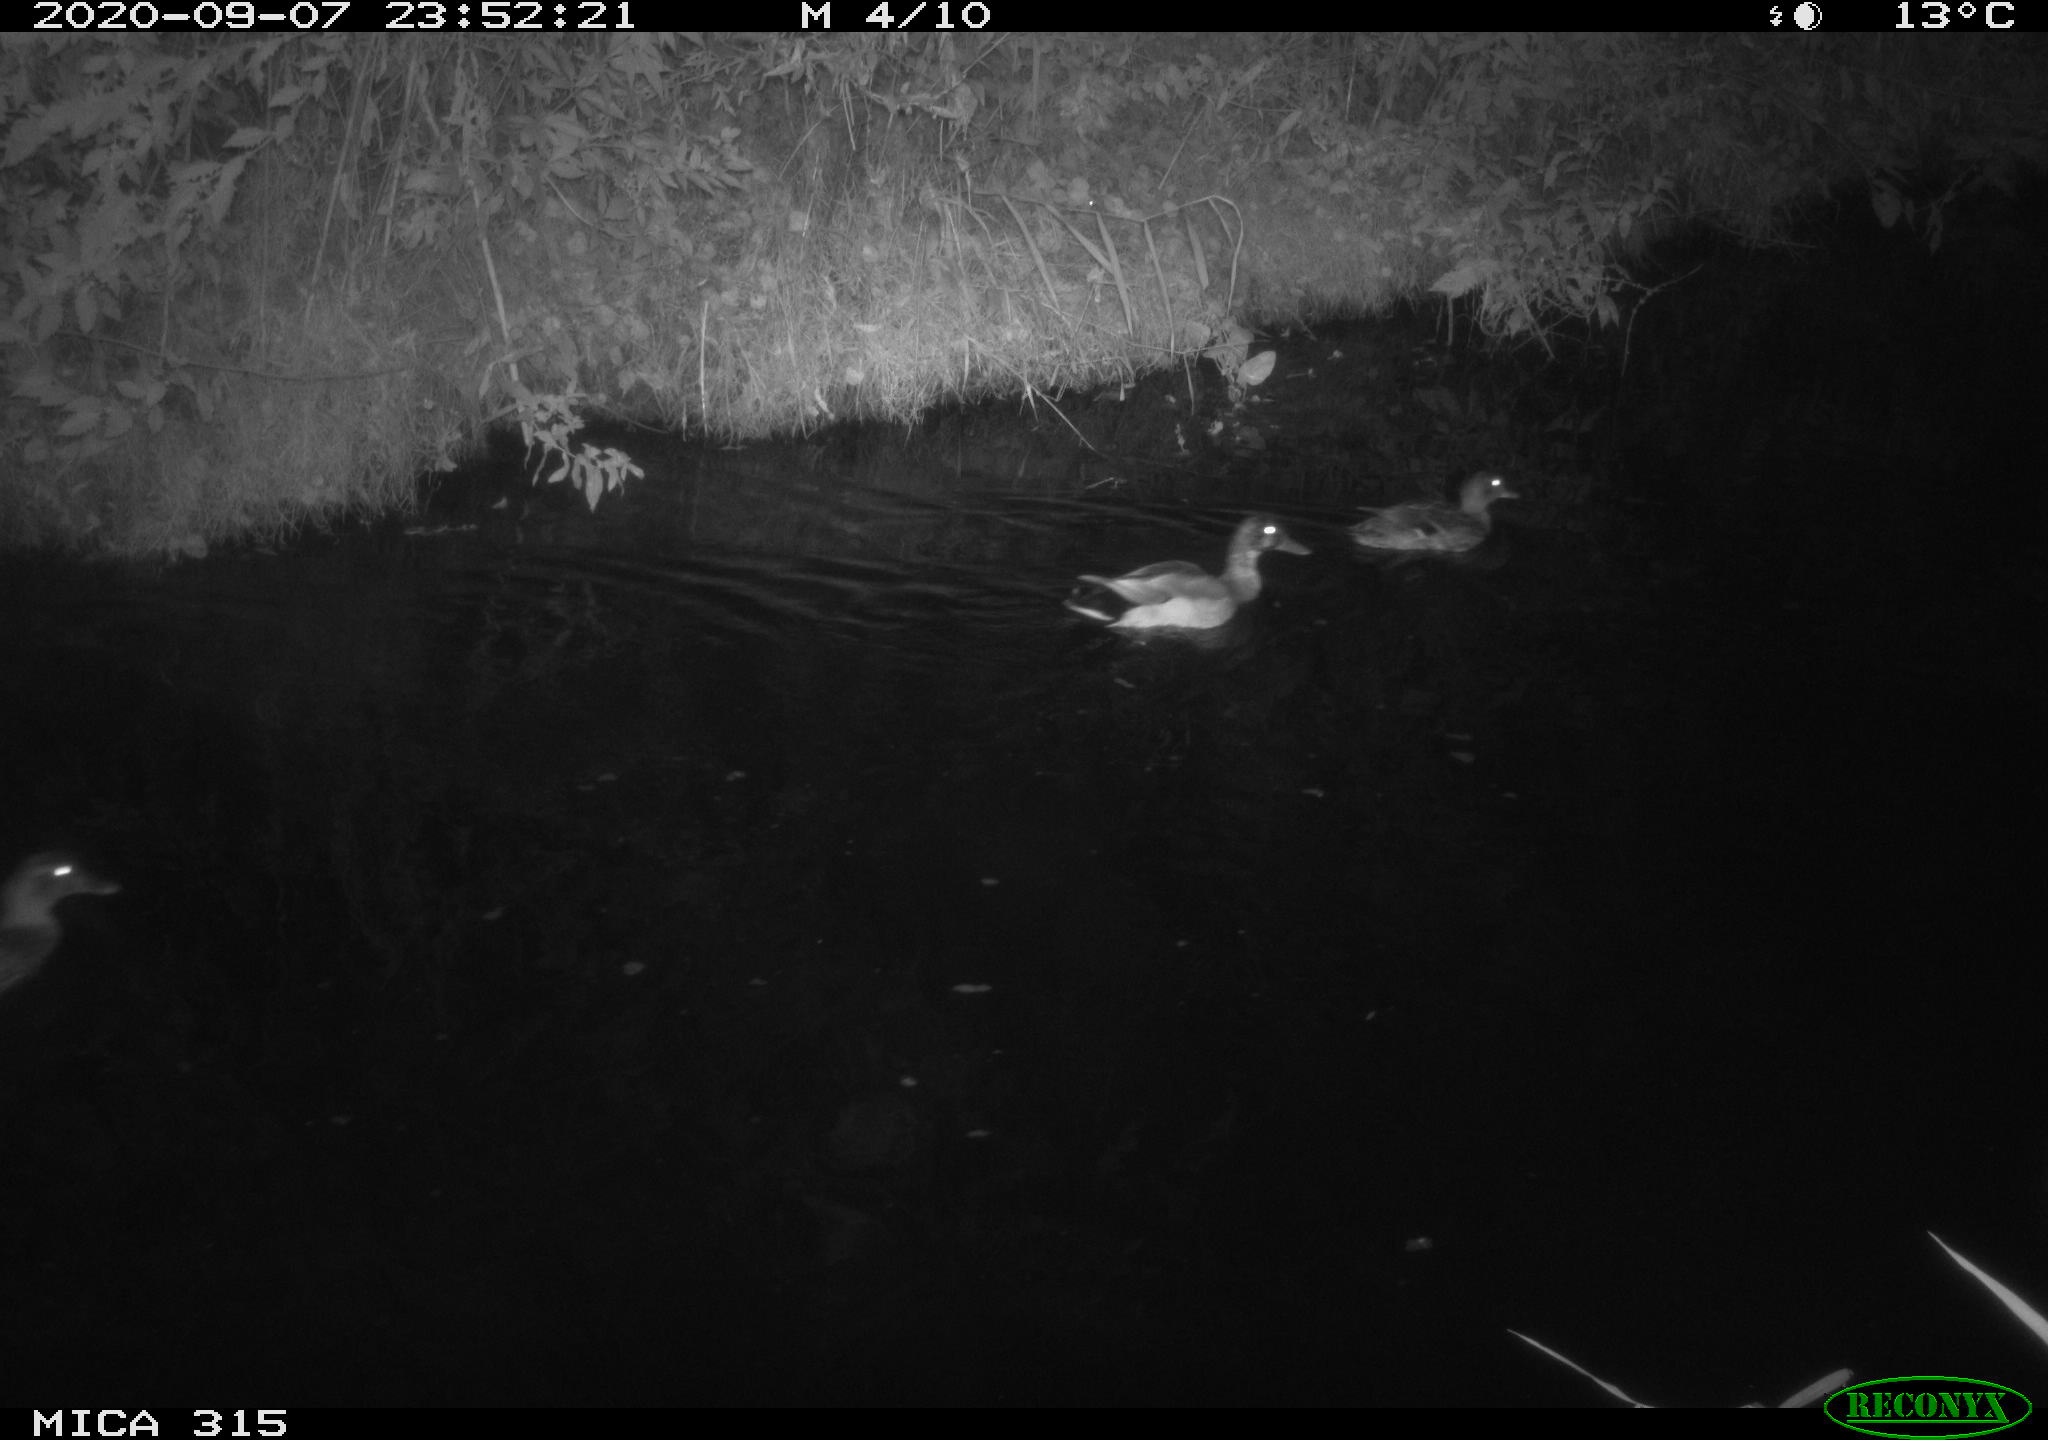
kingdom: Animalia
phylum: Chordata
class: Aves
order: Anseriformes
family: Anatidae
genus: Anas
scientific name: Anas platyrhynchos
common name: Mallard
